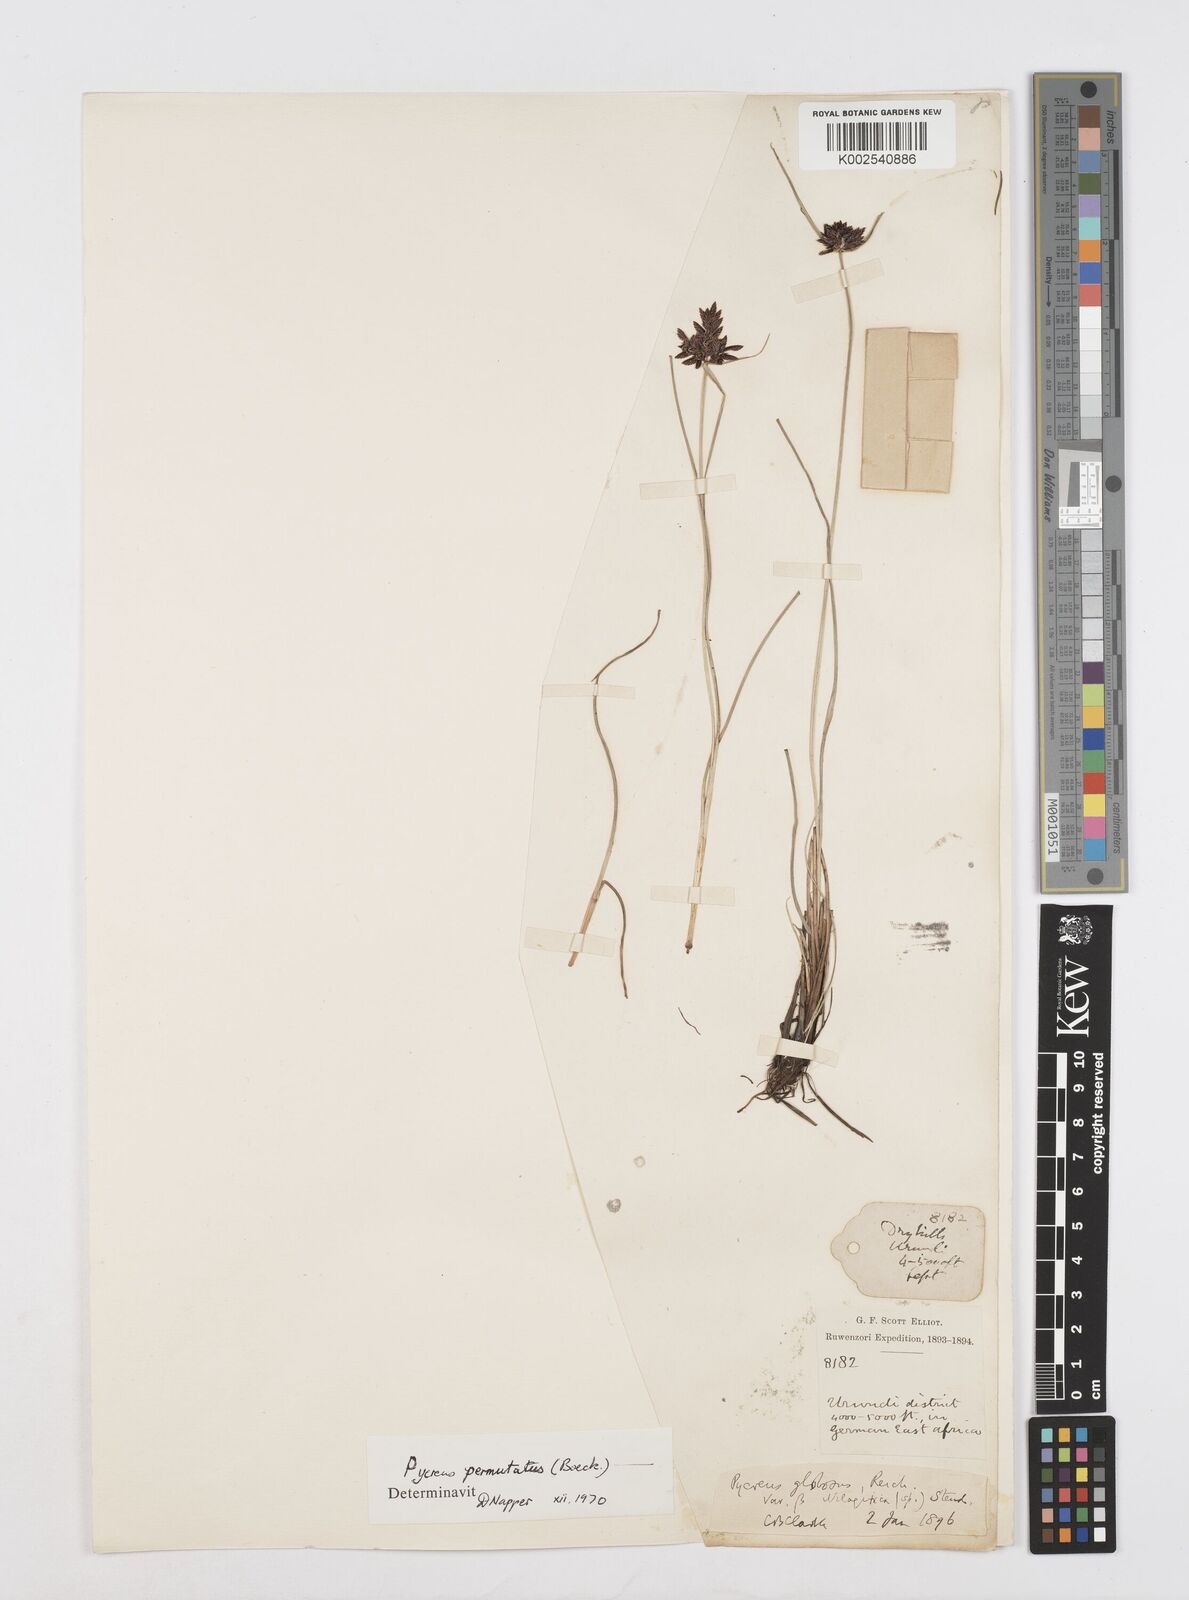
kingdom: Plantae
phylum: Tracheophyta
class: Liliopsida
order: Poales
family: Cyperaceae
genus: Cyperus
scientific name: Cyperus nigricans
